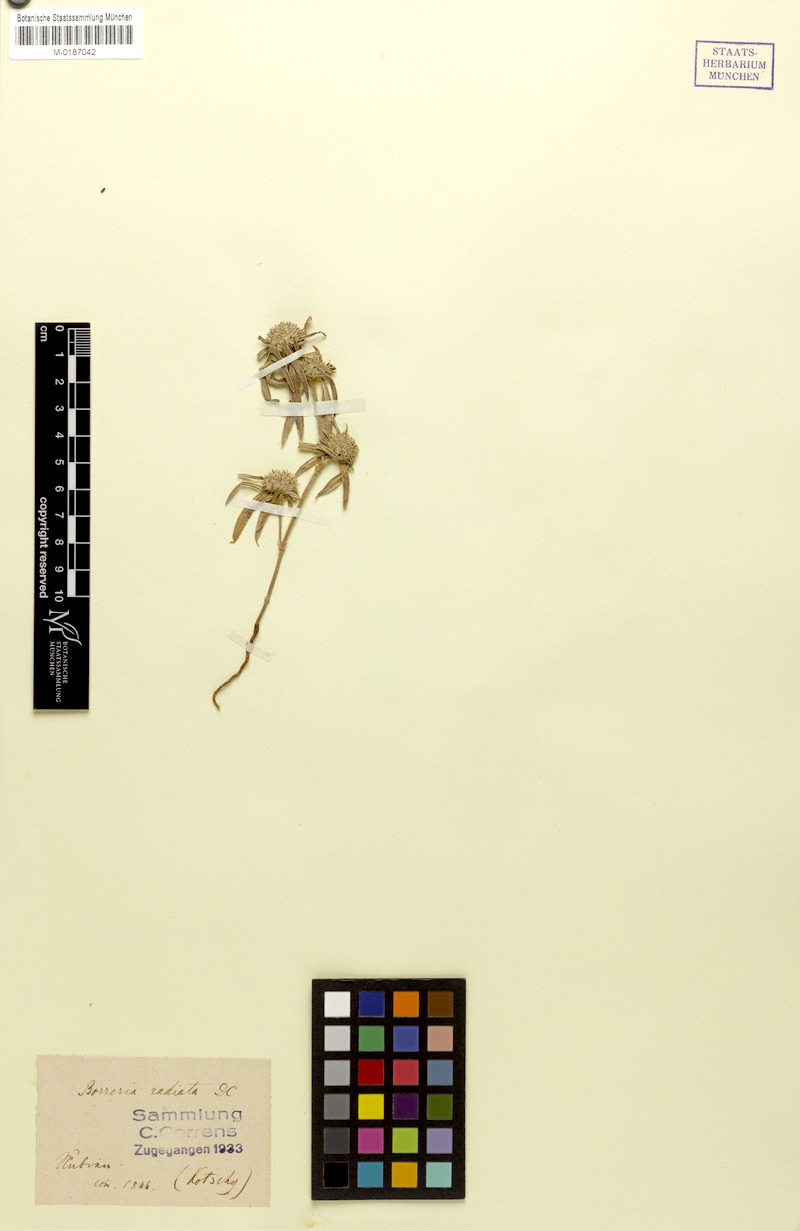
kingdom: Plantae
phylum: Tracheophyta
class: Magnoliopsida
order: Gentianales
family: Rubiaceae
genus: Spermacoce
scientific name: Spermacoce radiata
